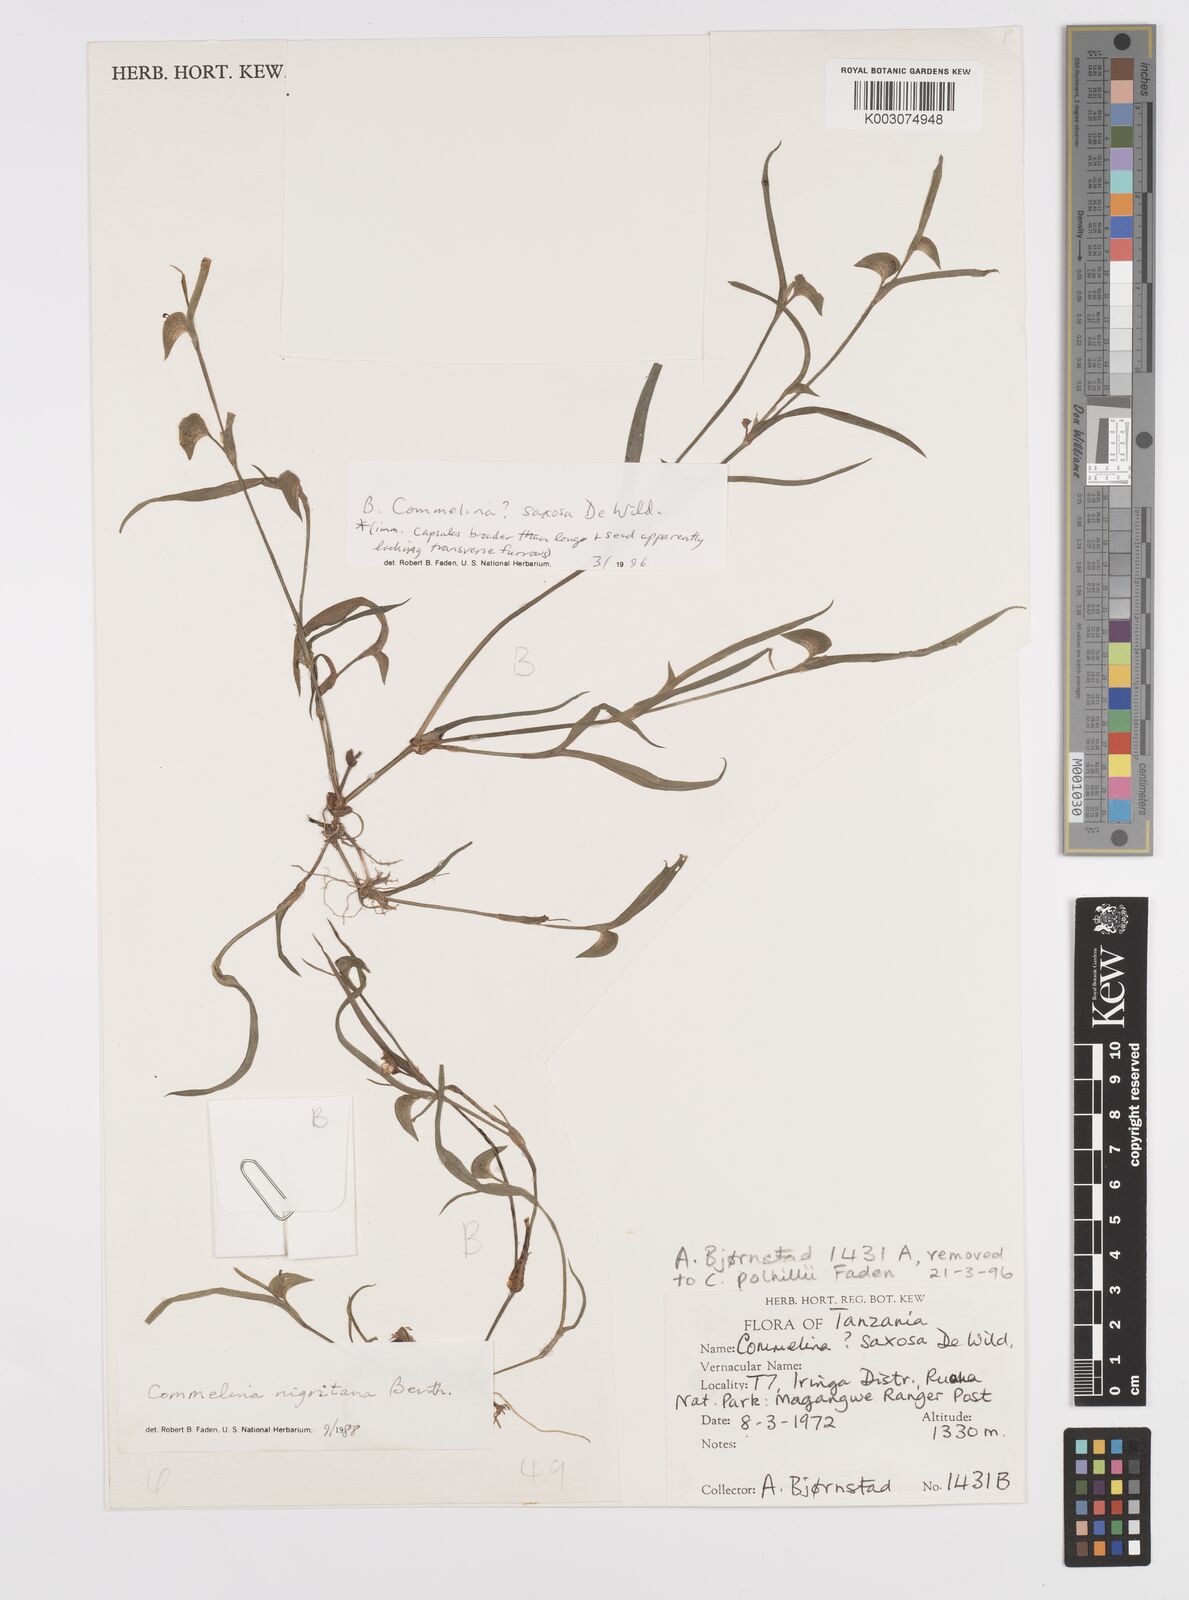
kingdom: Plantae
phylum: Tracheophyta
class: Liliopsida
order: Commelinales
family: Commelinaceae
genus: Commelina
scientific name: Commelina saxosa
